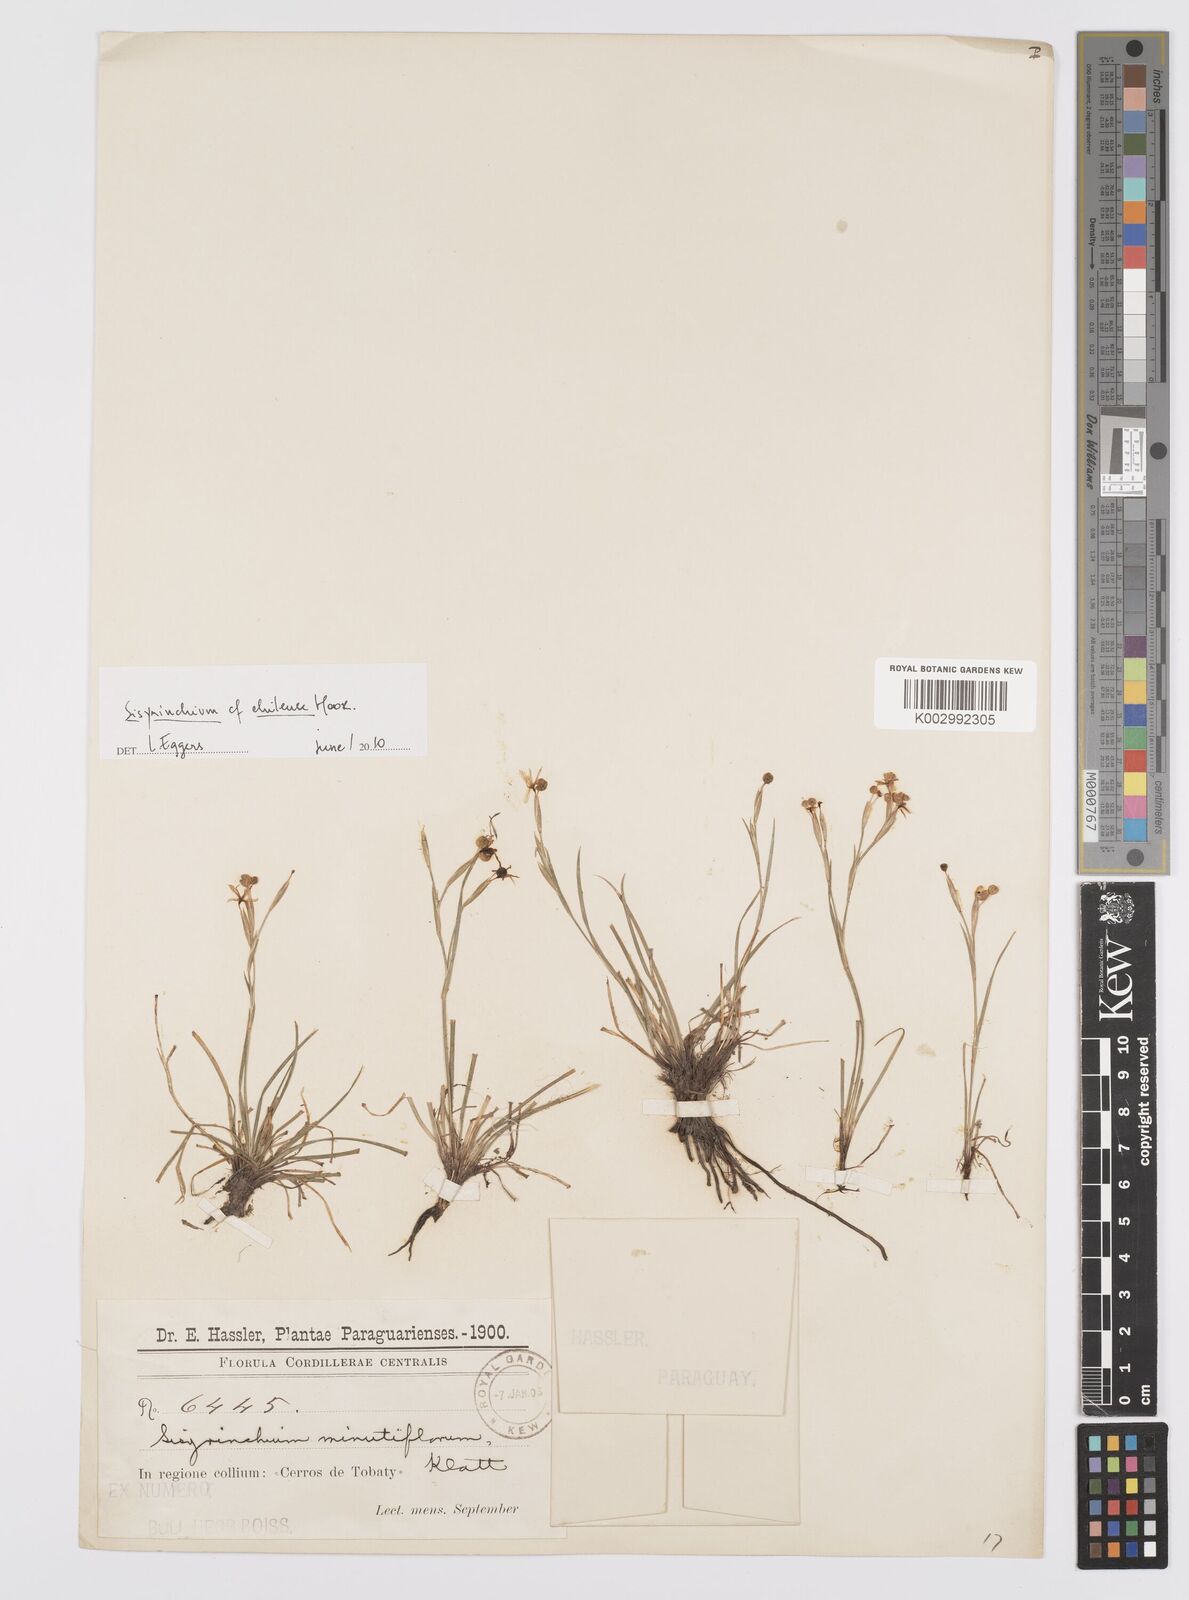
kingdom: Plantae
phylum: Tracheophyta
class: Liliopsida
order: Asparagales
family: Iridaceae
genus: Sisyrinchium
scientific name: Sisyrinchium chilense
